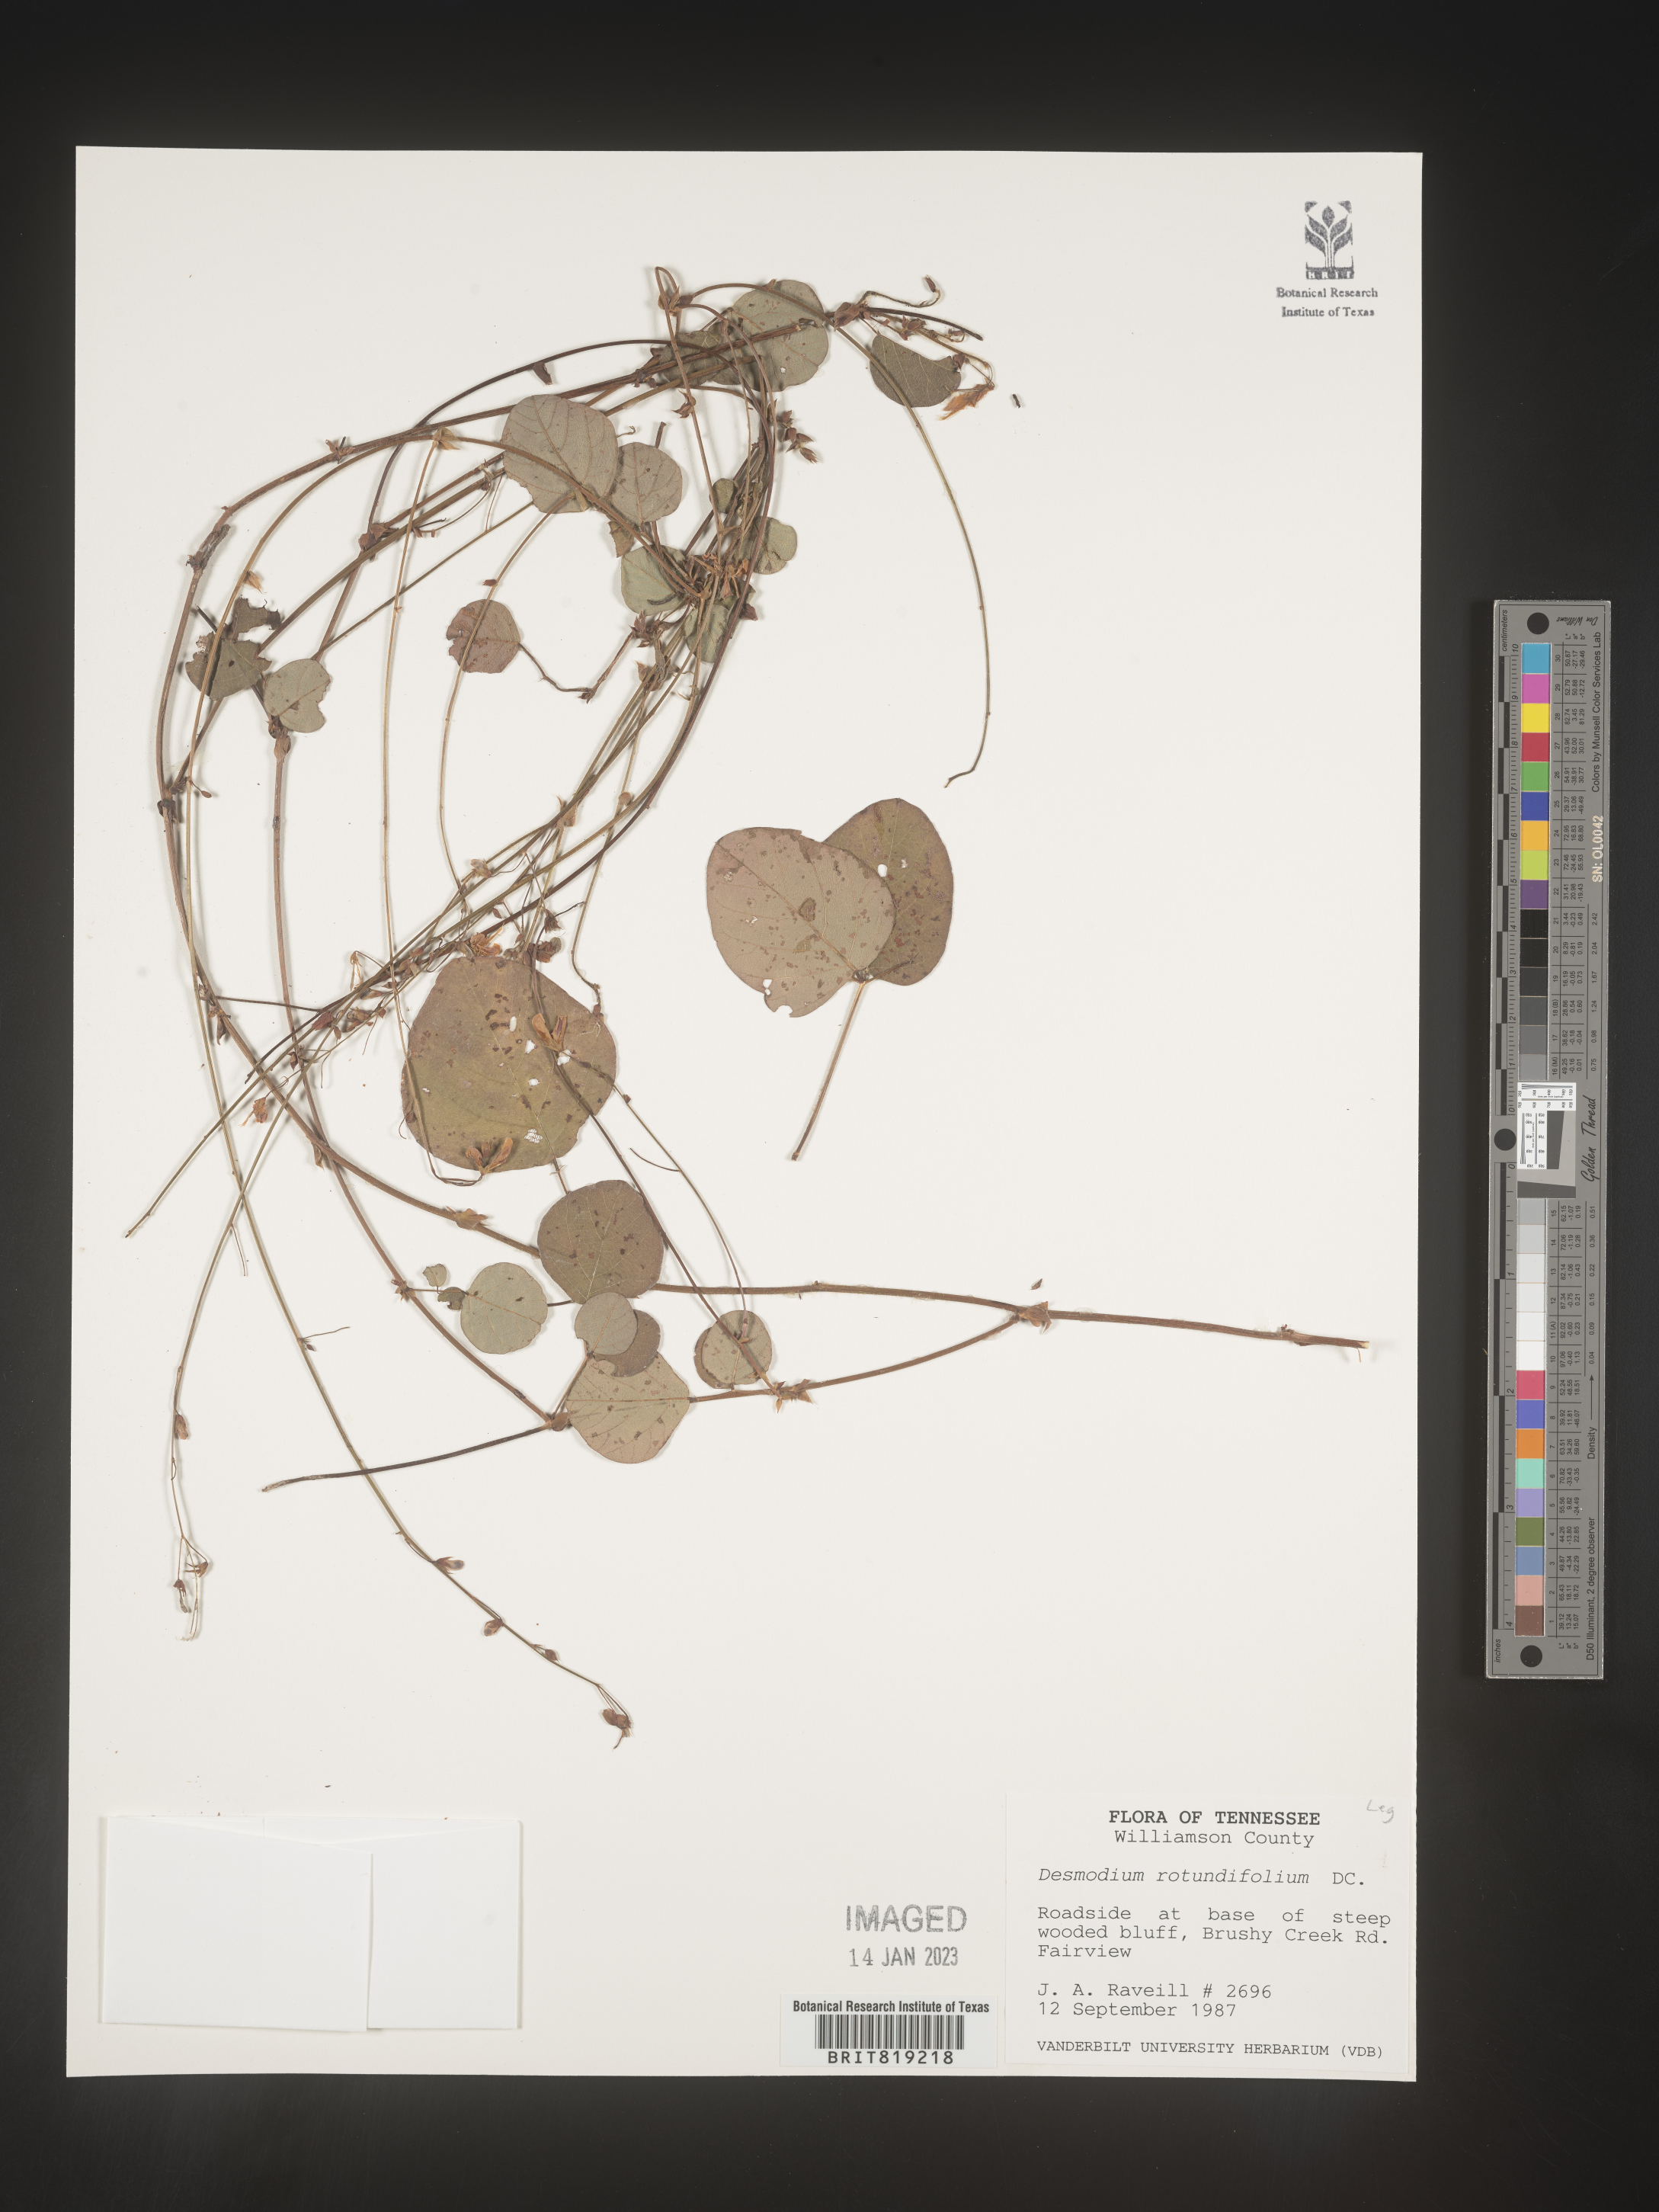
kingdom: Plantae
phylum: Tracheophyta
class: Magnoliopsida
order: Fabales
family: Fabaceae
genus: Desmodium
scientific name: Desmodium rotundifolium
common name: Dollarleaf
